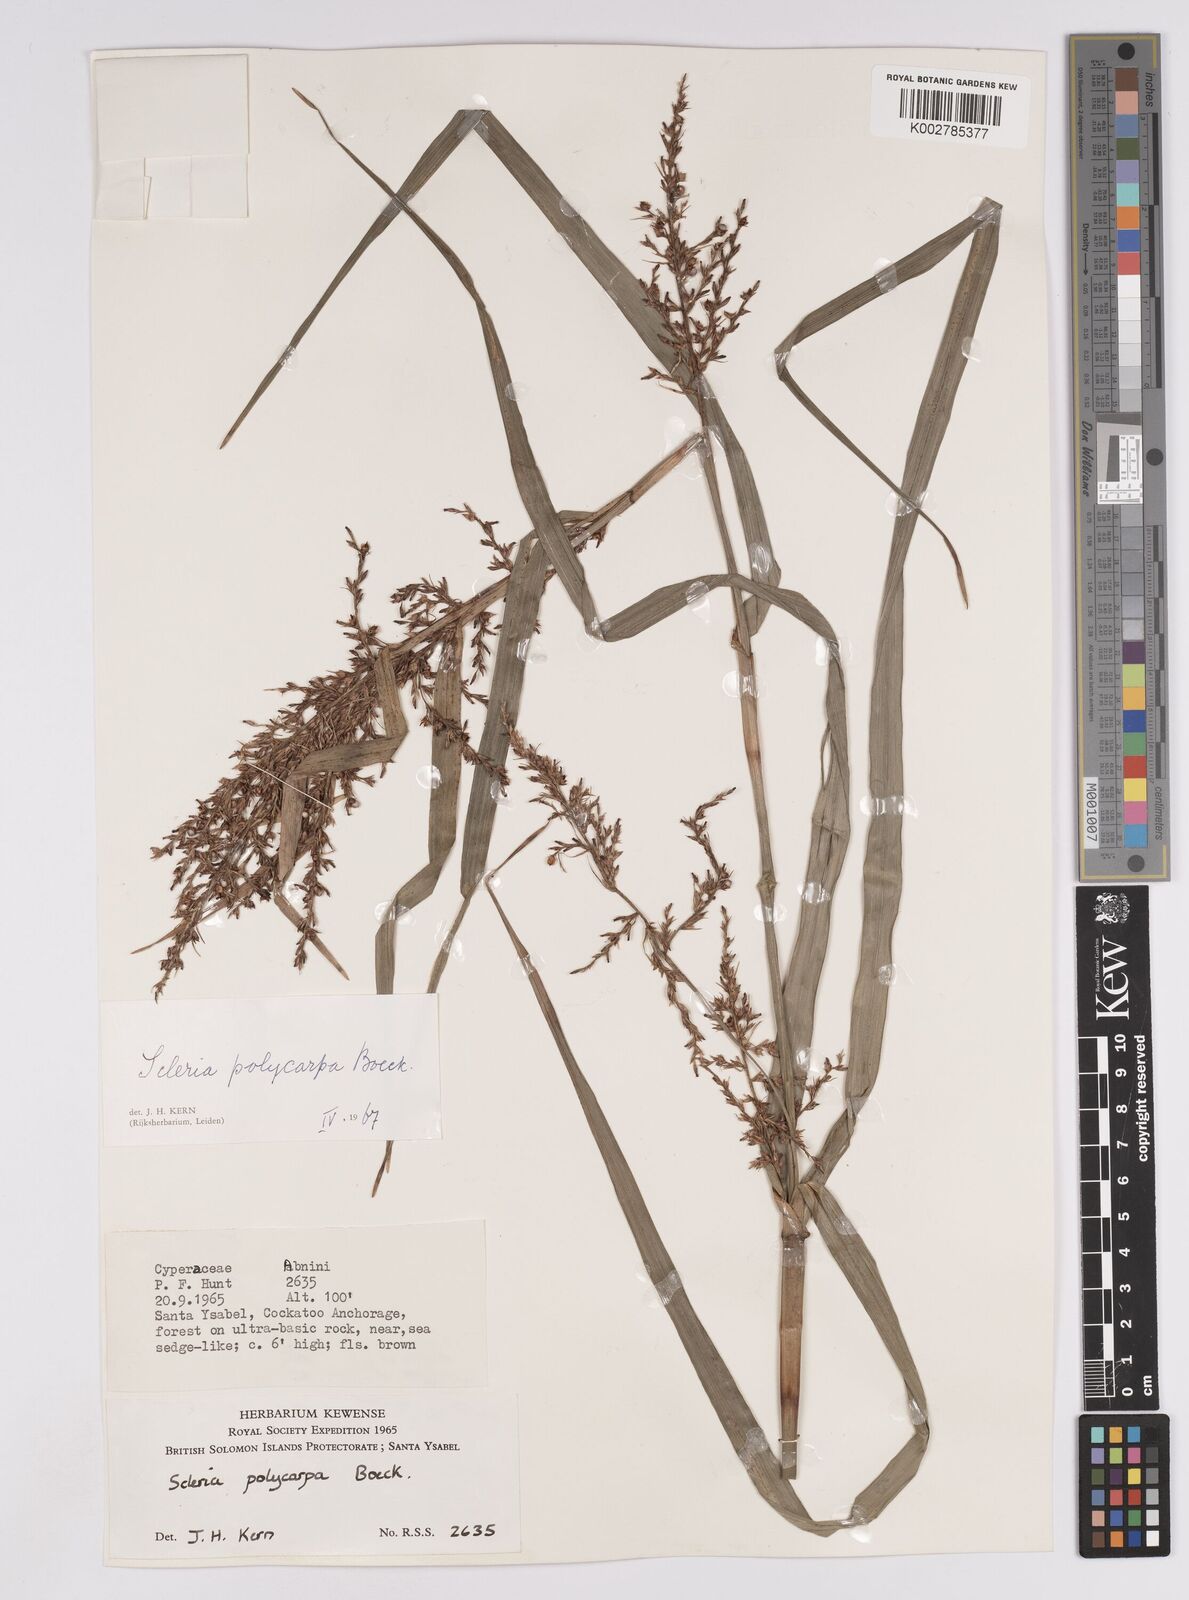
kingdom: Plantae
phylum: Tracheophyta
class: Liliopsida
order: Poales
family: Cyperaceae
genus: Scleria
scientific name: Scleria polycarpa
